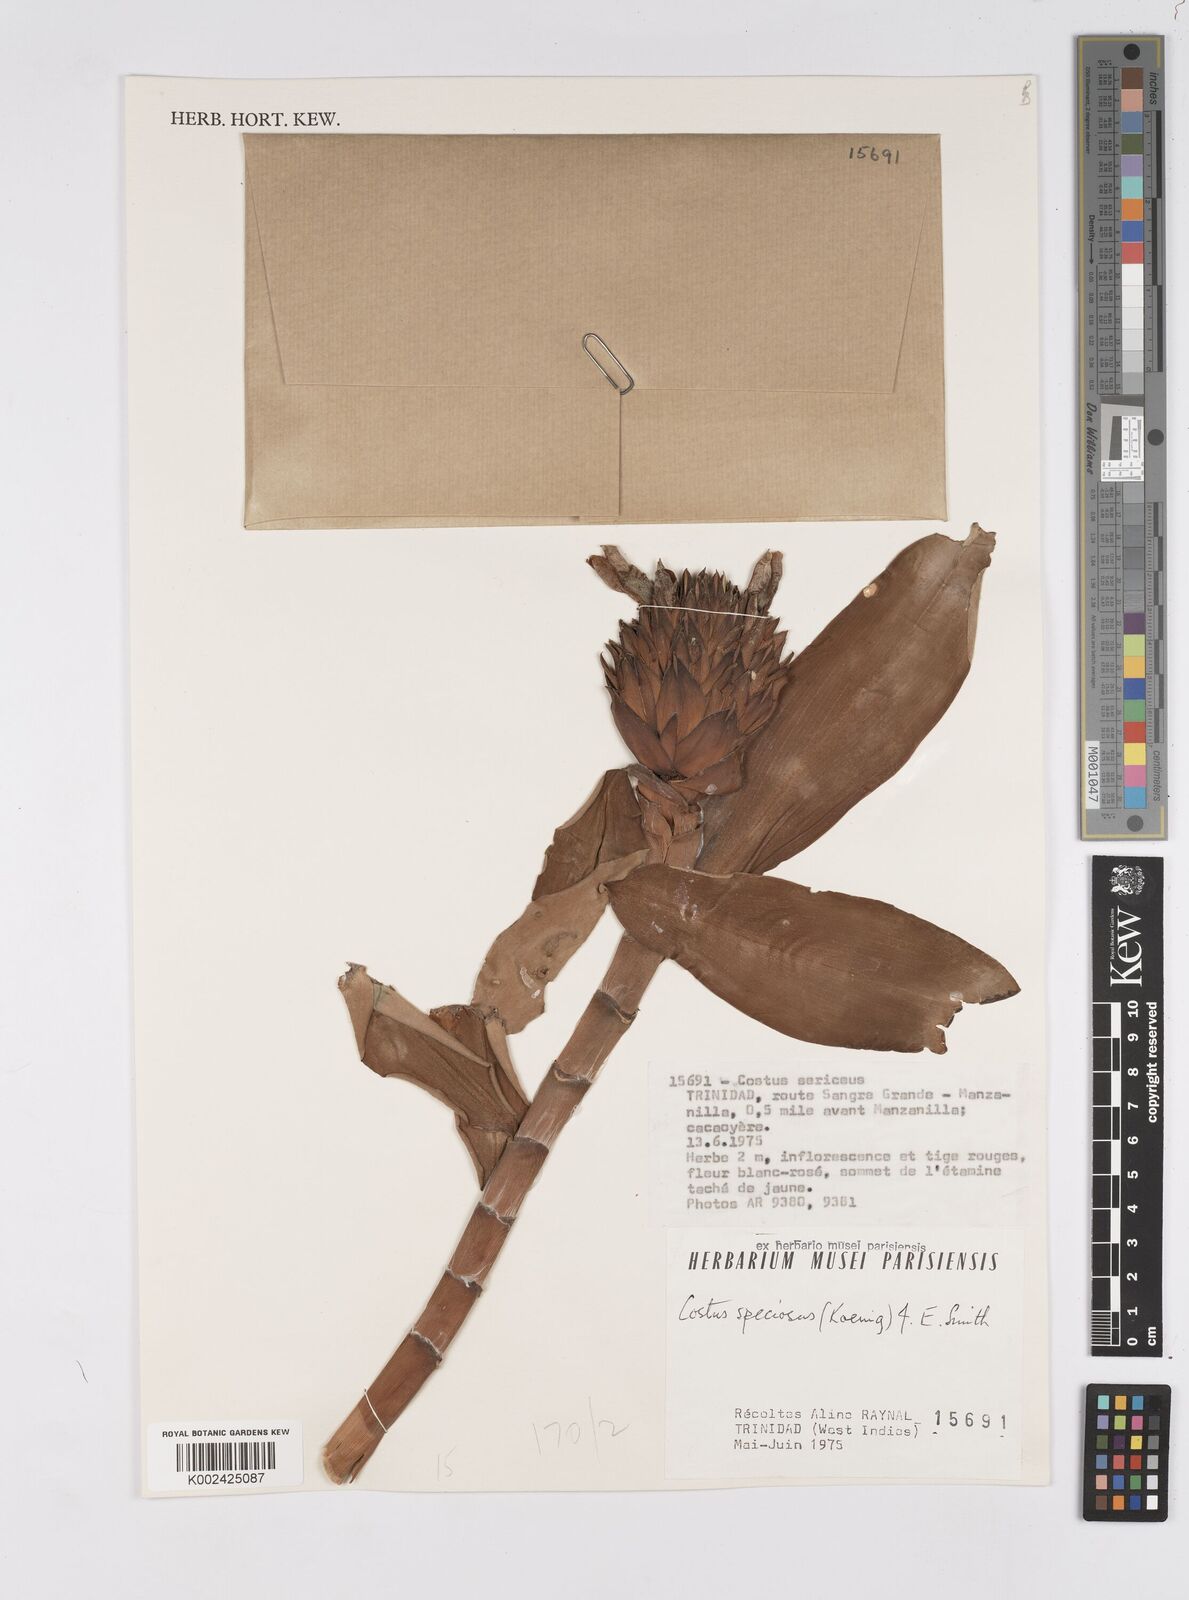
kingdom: Plantae
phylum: Tracheophyta
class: Liliopsida
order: Zingiberales
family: Costaceae
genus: Hellenia
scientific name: Hellenia speciosa
